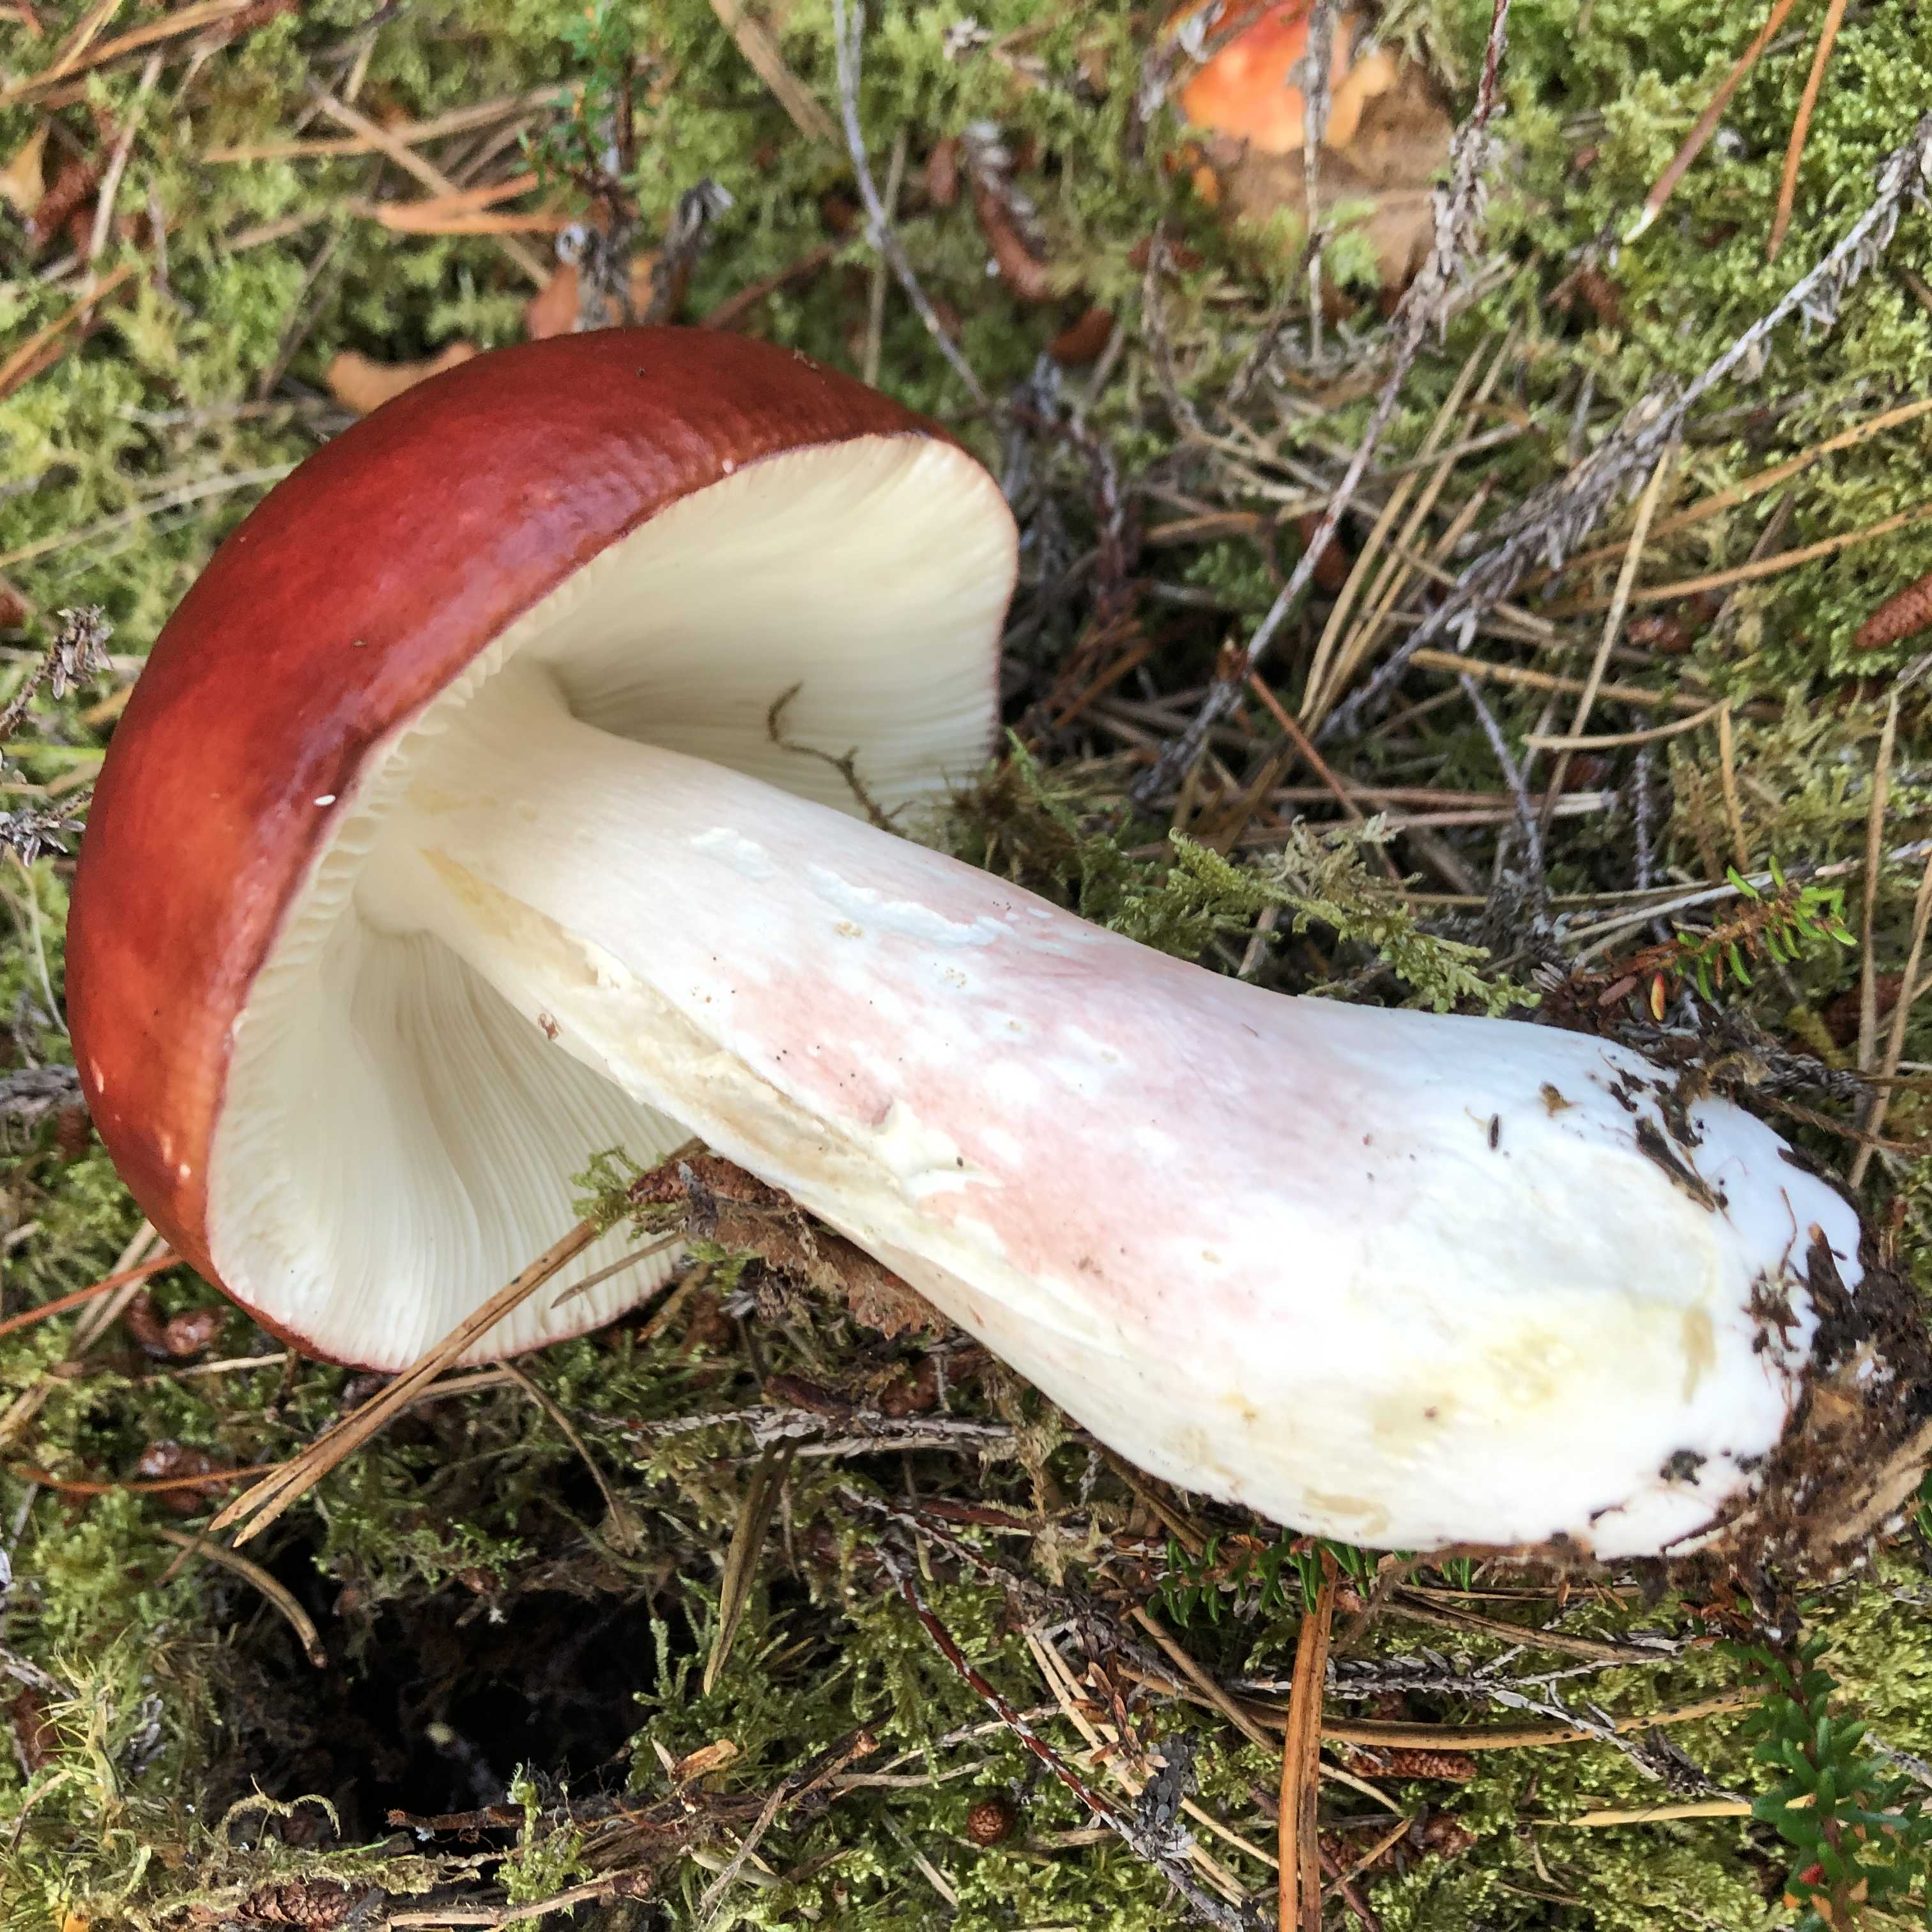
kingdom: Fungi
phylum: Basidiomycota
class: Agaricomycetes
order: Russulales
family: Russulaceae
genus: Russula
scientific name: Russula paludosa
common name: prægtig skørhat
